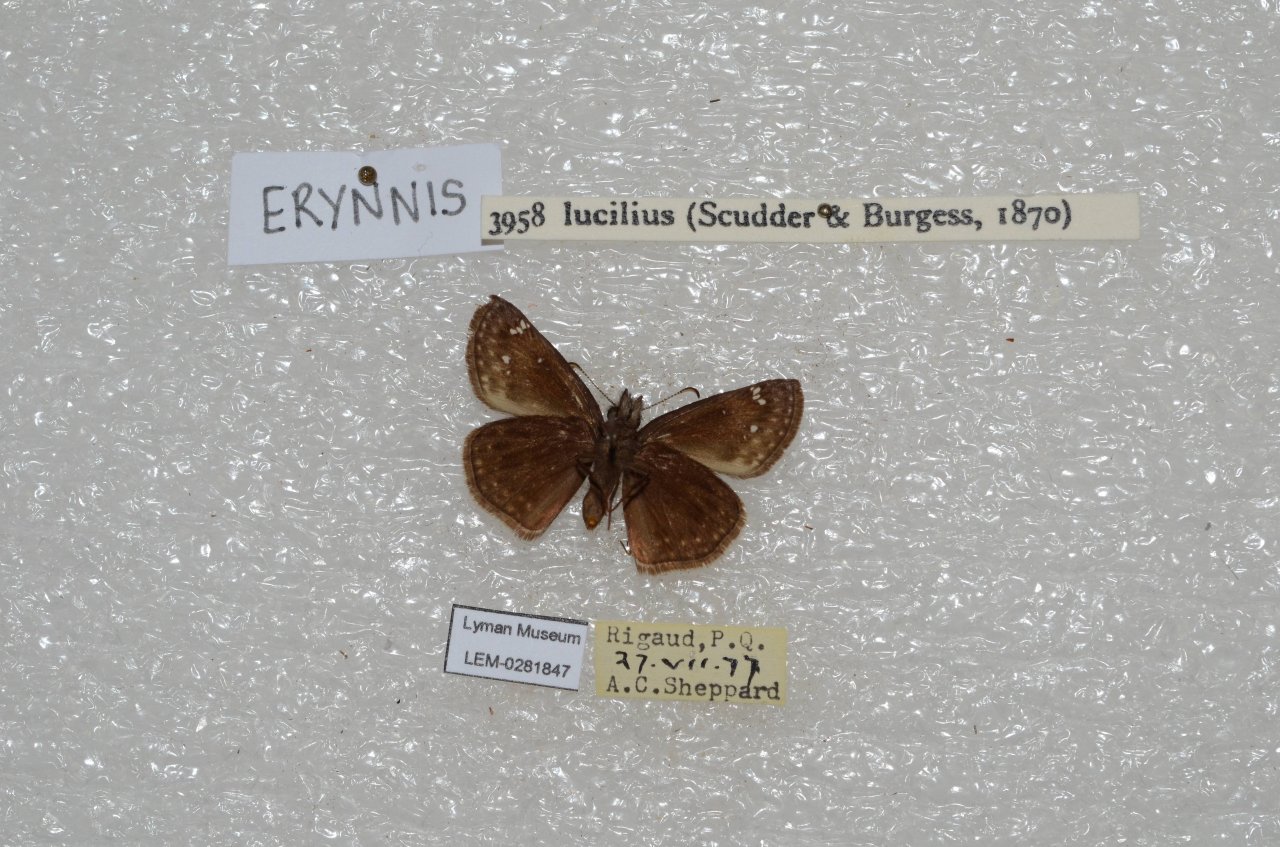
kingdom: Animalia
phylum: Arthropoda
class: Insecta
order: Lepidoptera
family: Hesperiidae
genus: Gesta
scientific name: Gesta
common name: Columbine Duskywing
